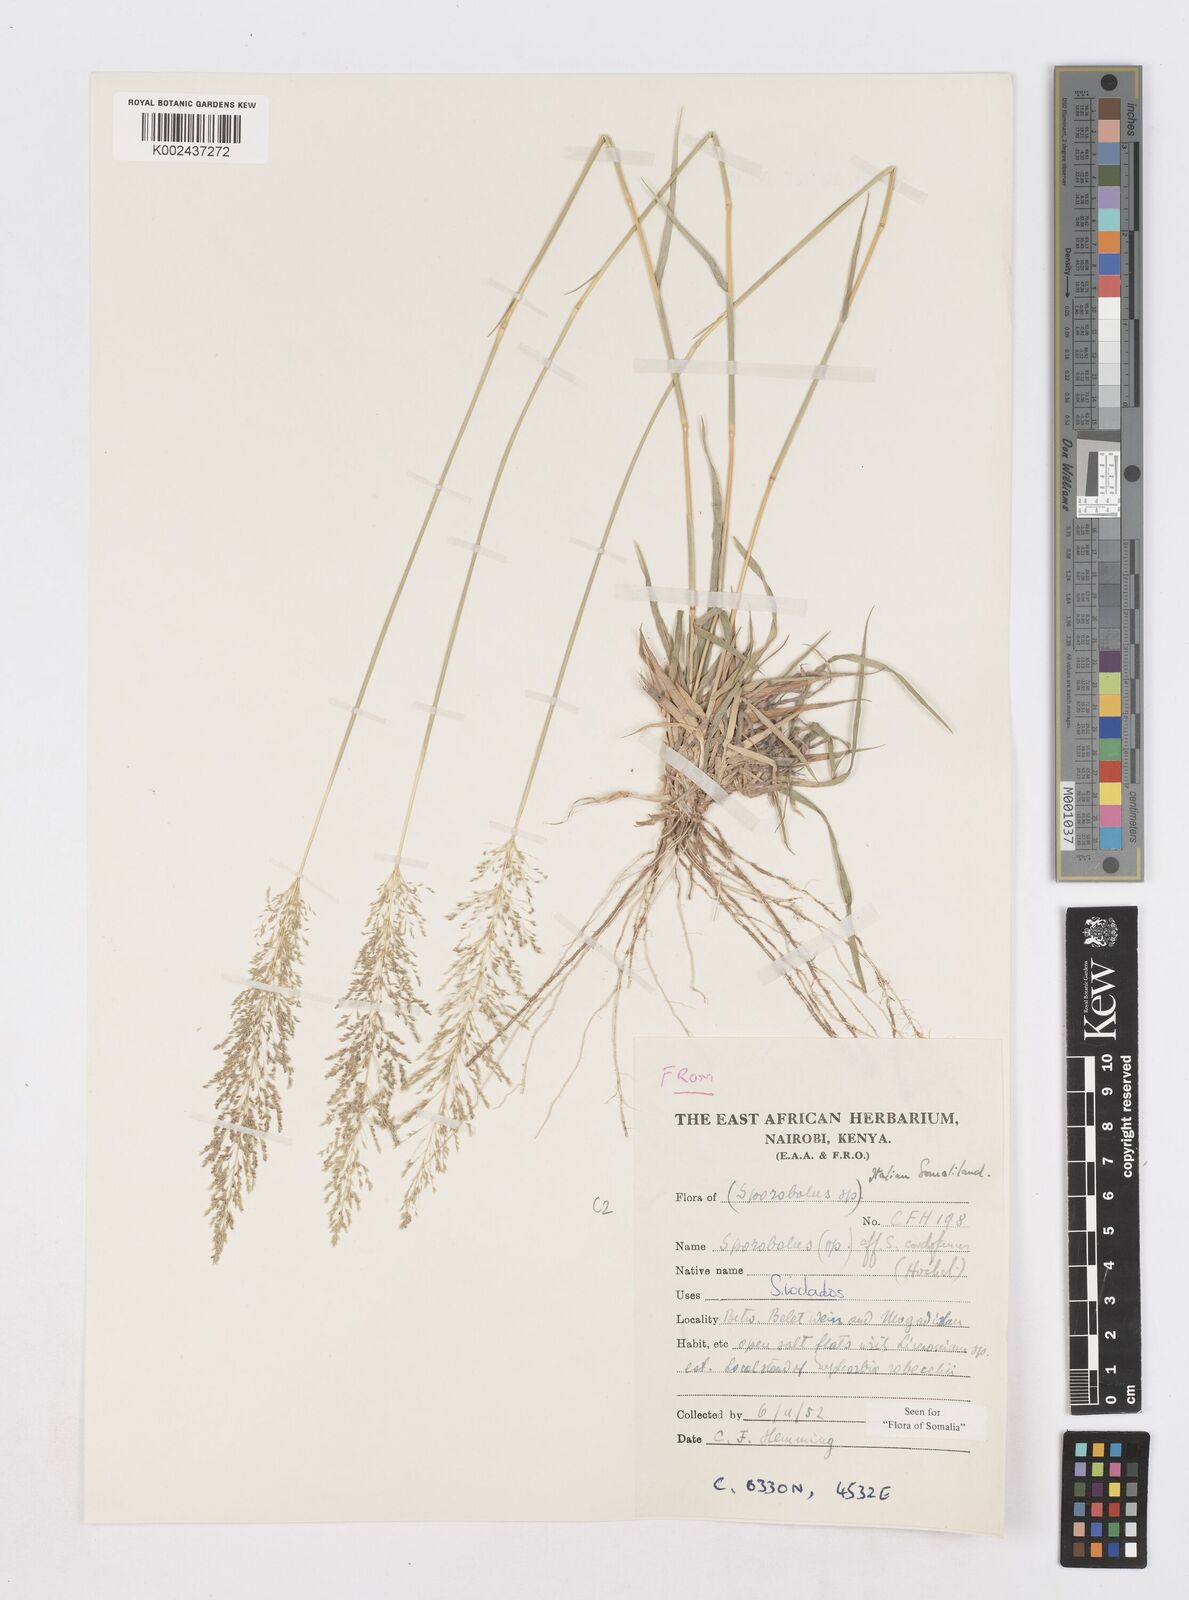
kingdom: Plantae
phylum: Tracheophyta
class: Liliopsida
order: Poales
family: Poaceae
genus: Sporobolus
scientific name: Sporobolus ioclados
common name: Pan dropseed
